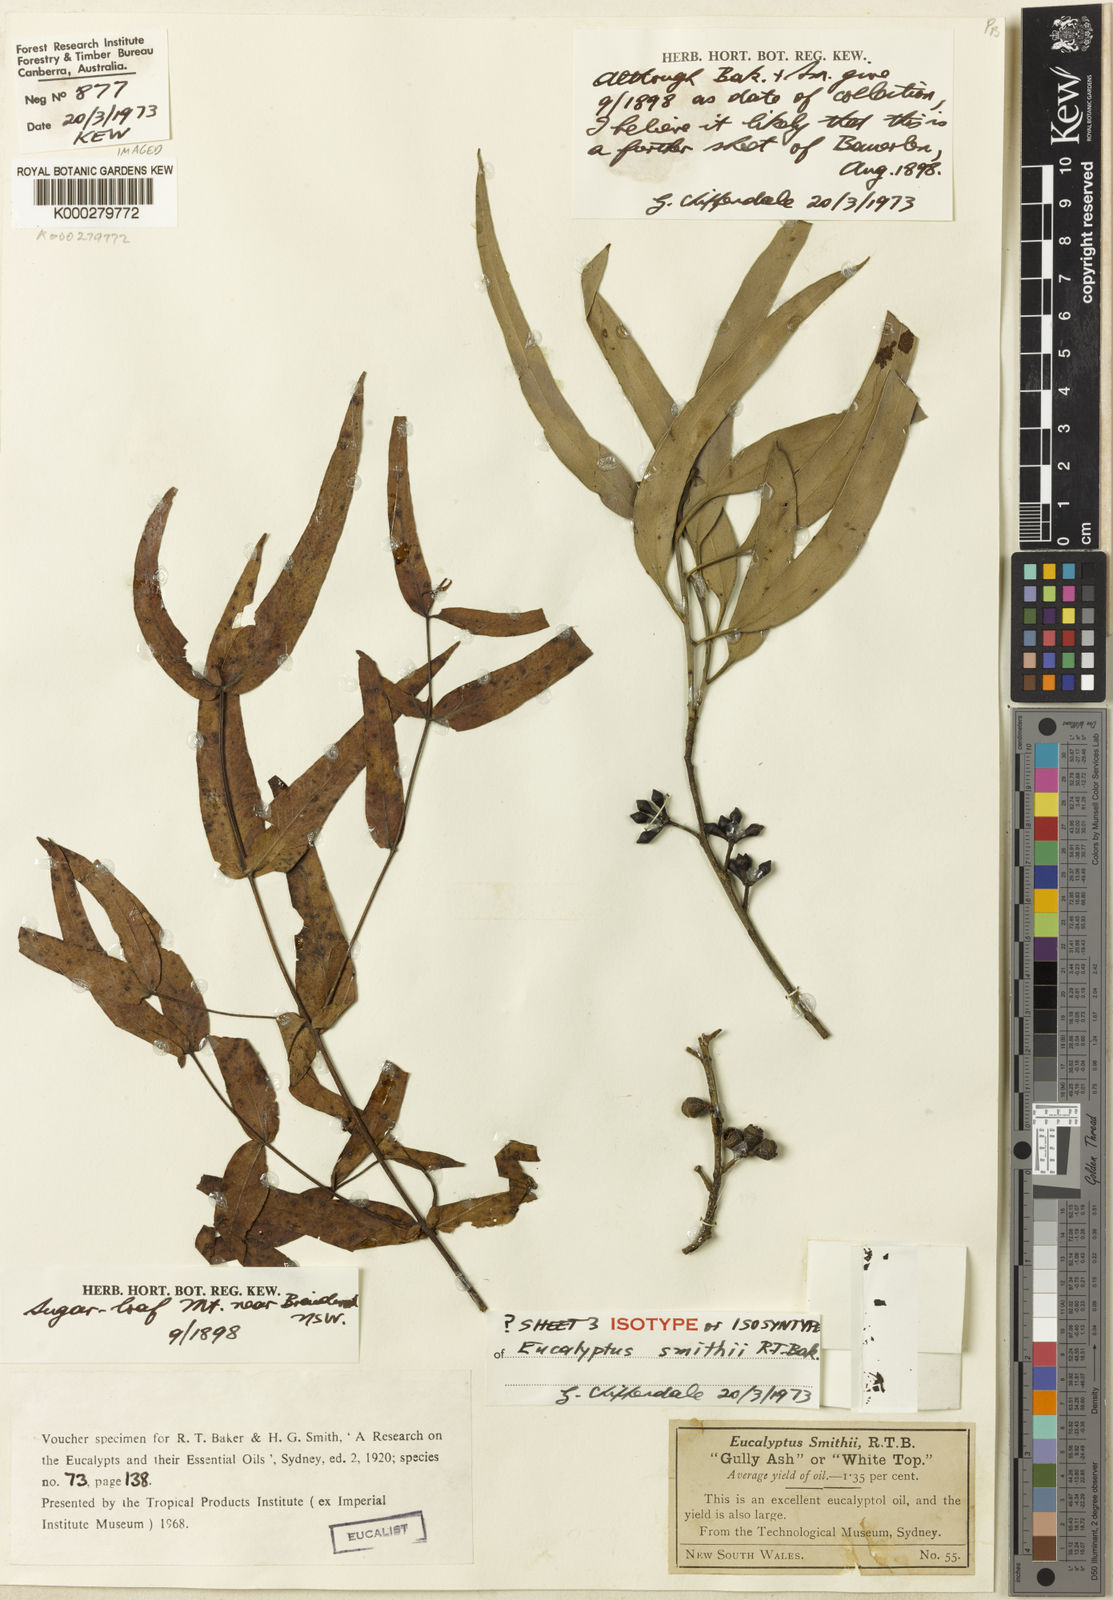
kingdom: Plantae
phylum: Tracheophyta
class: Magnoliopsida
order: Myrtales
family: Myrtaceae
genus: Eucalyptus
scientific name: Eucalyptus smithii
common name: Blackbutt-peppermint
